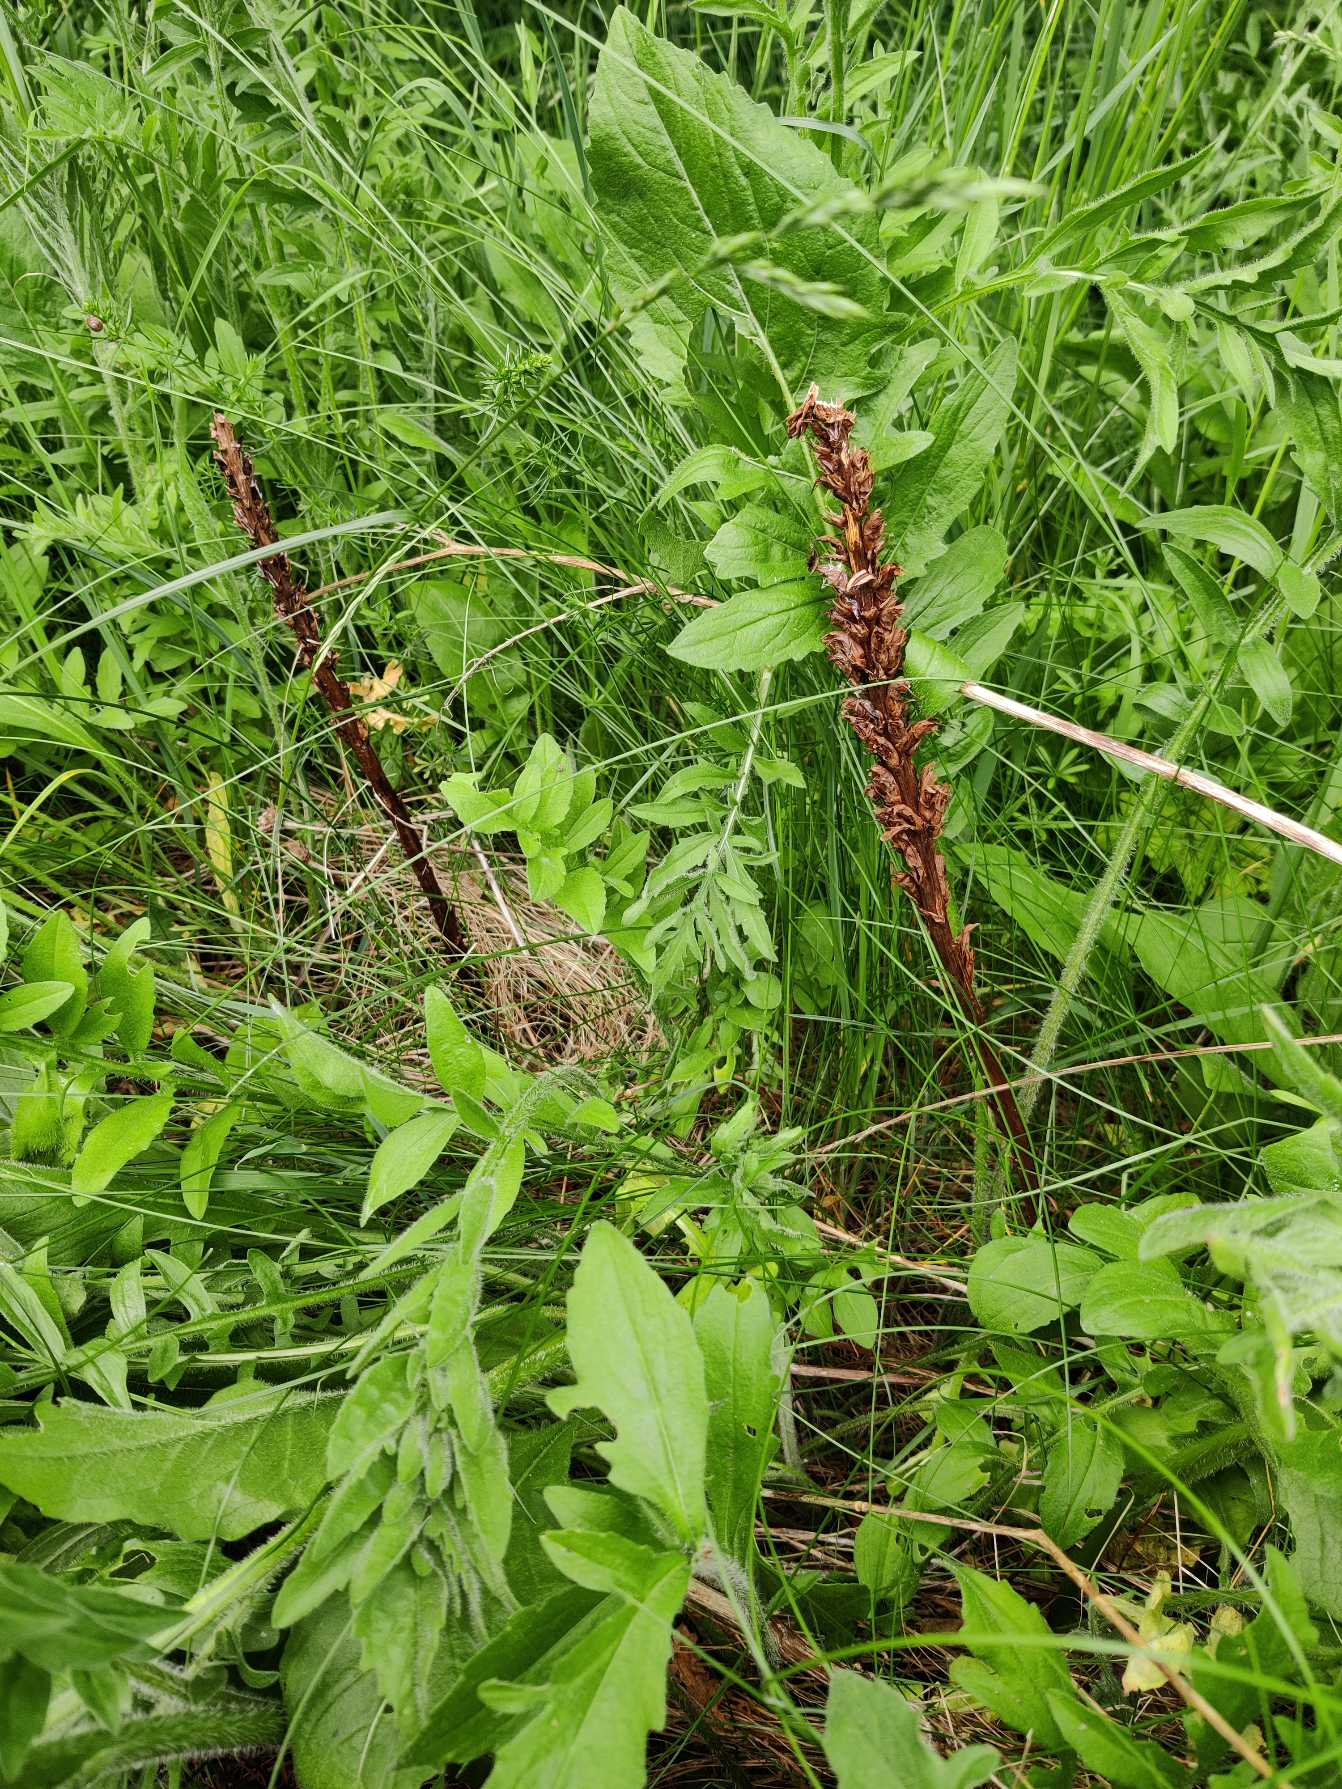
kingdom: Plantae
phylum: Tracheophyta
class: Magnoliopsida
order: Lamiales
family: Orobanchaceae
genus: Orobanche
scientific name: Orobanche elatior
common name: Stor gyvelkvæler
